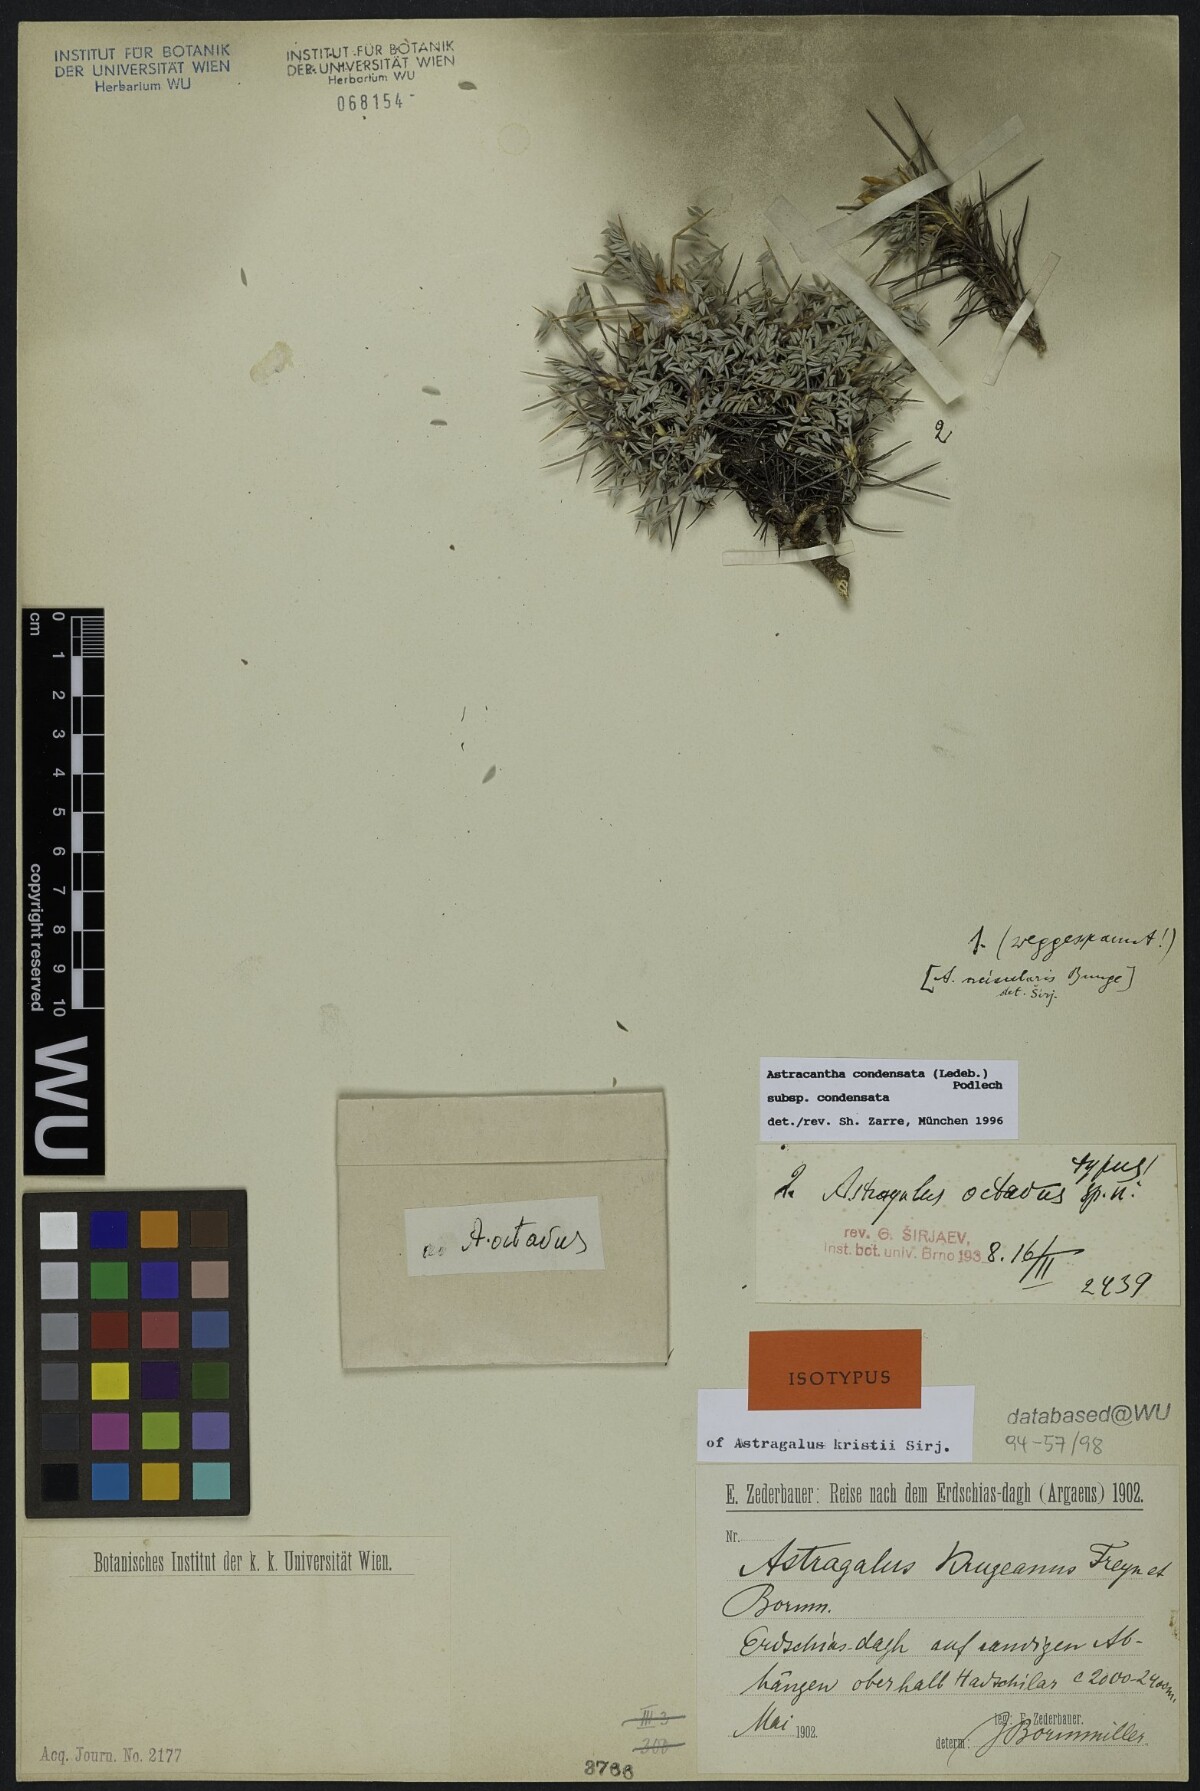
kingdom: Plantae
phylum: Tracheophyta
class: Magnoliopsida
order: Fabales
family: Fabaceae
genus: Astragalus
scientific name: Astragalus condensatus
